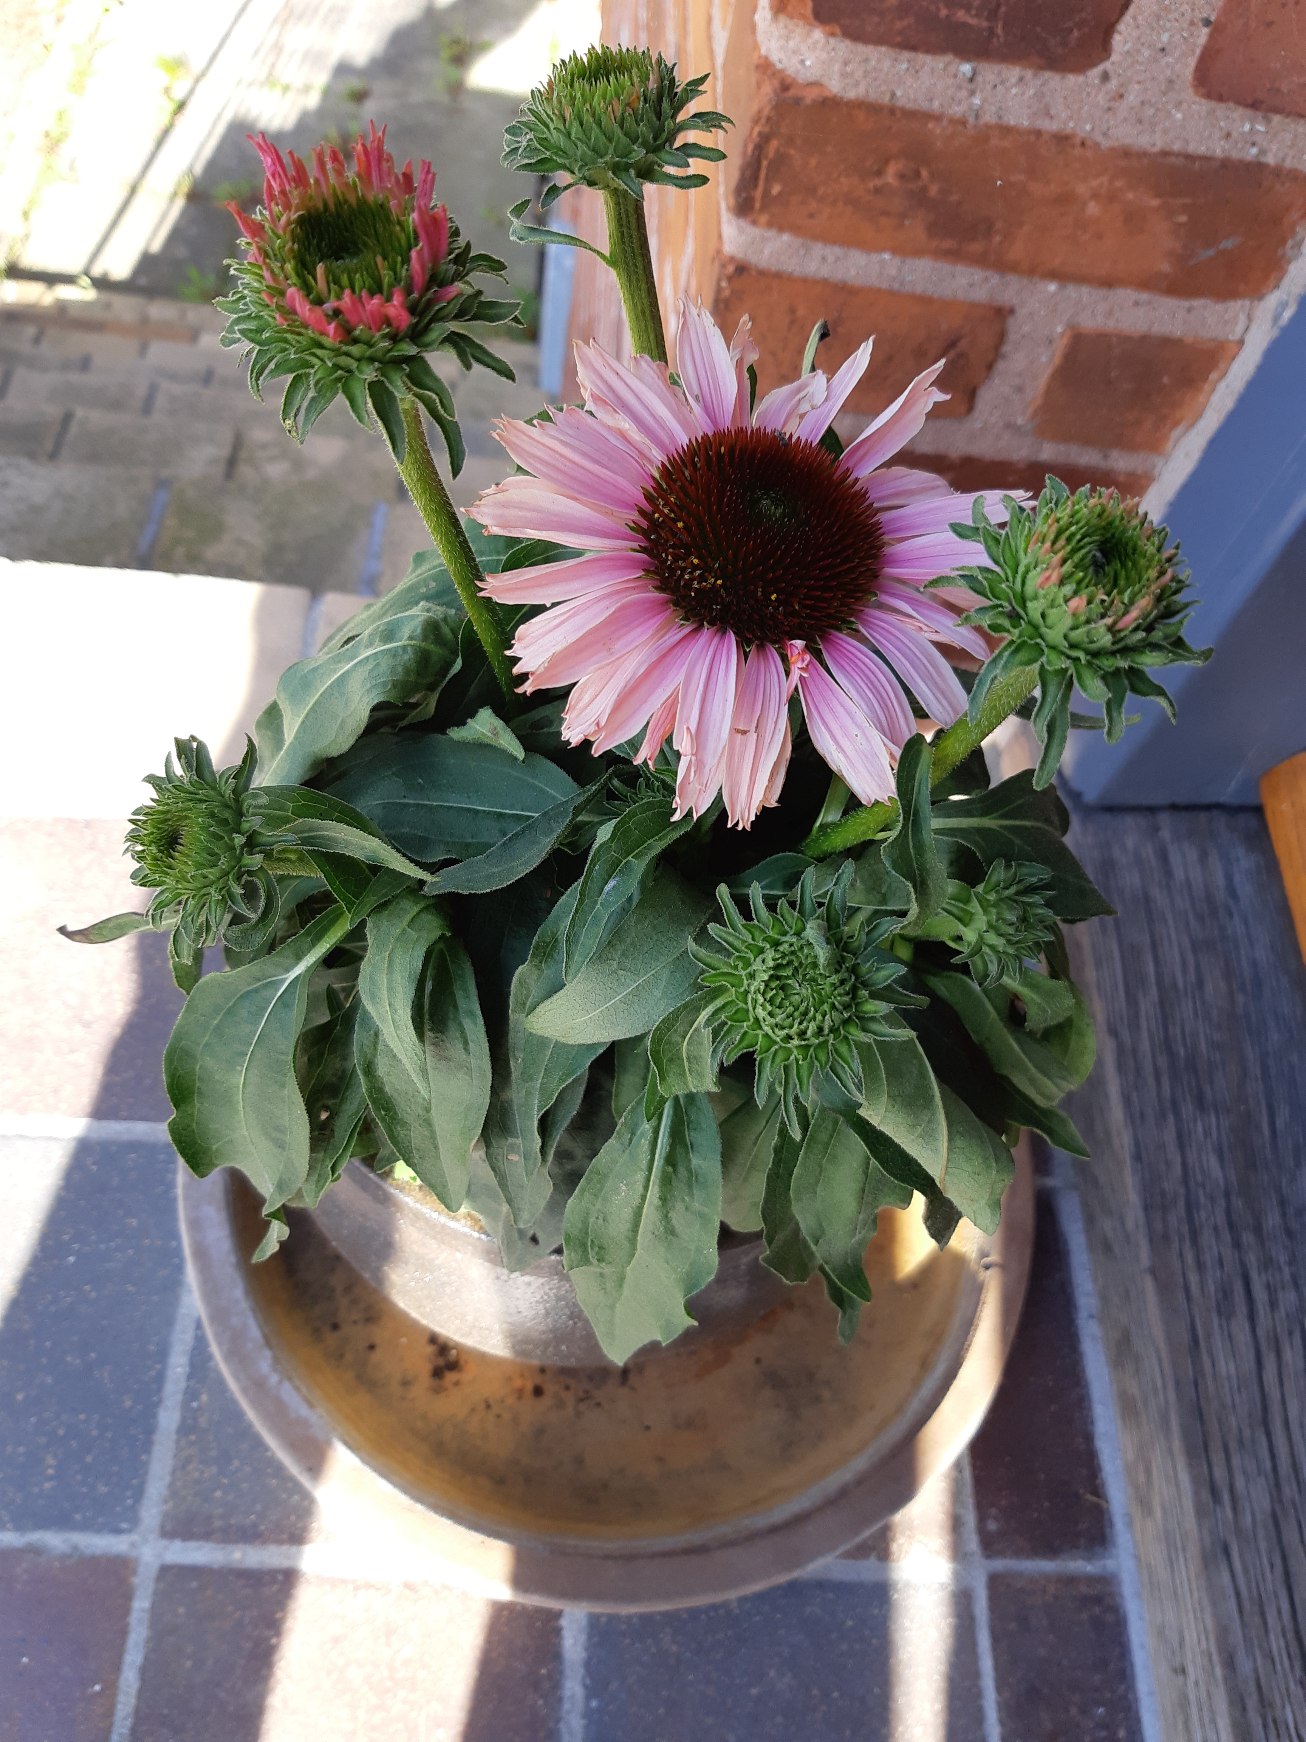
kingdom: Plantae
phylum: Tracheophyta
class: Magnoliopsida
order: Asterales
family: Asteraceae
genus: Echinacea
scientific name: Echinacea purpurea
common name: Have-purpursolhat
